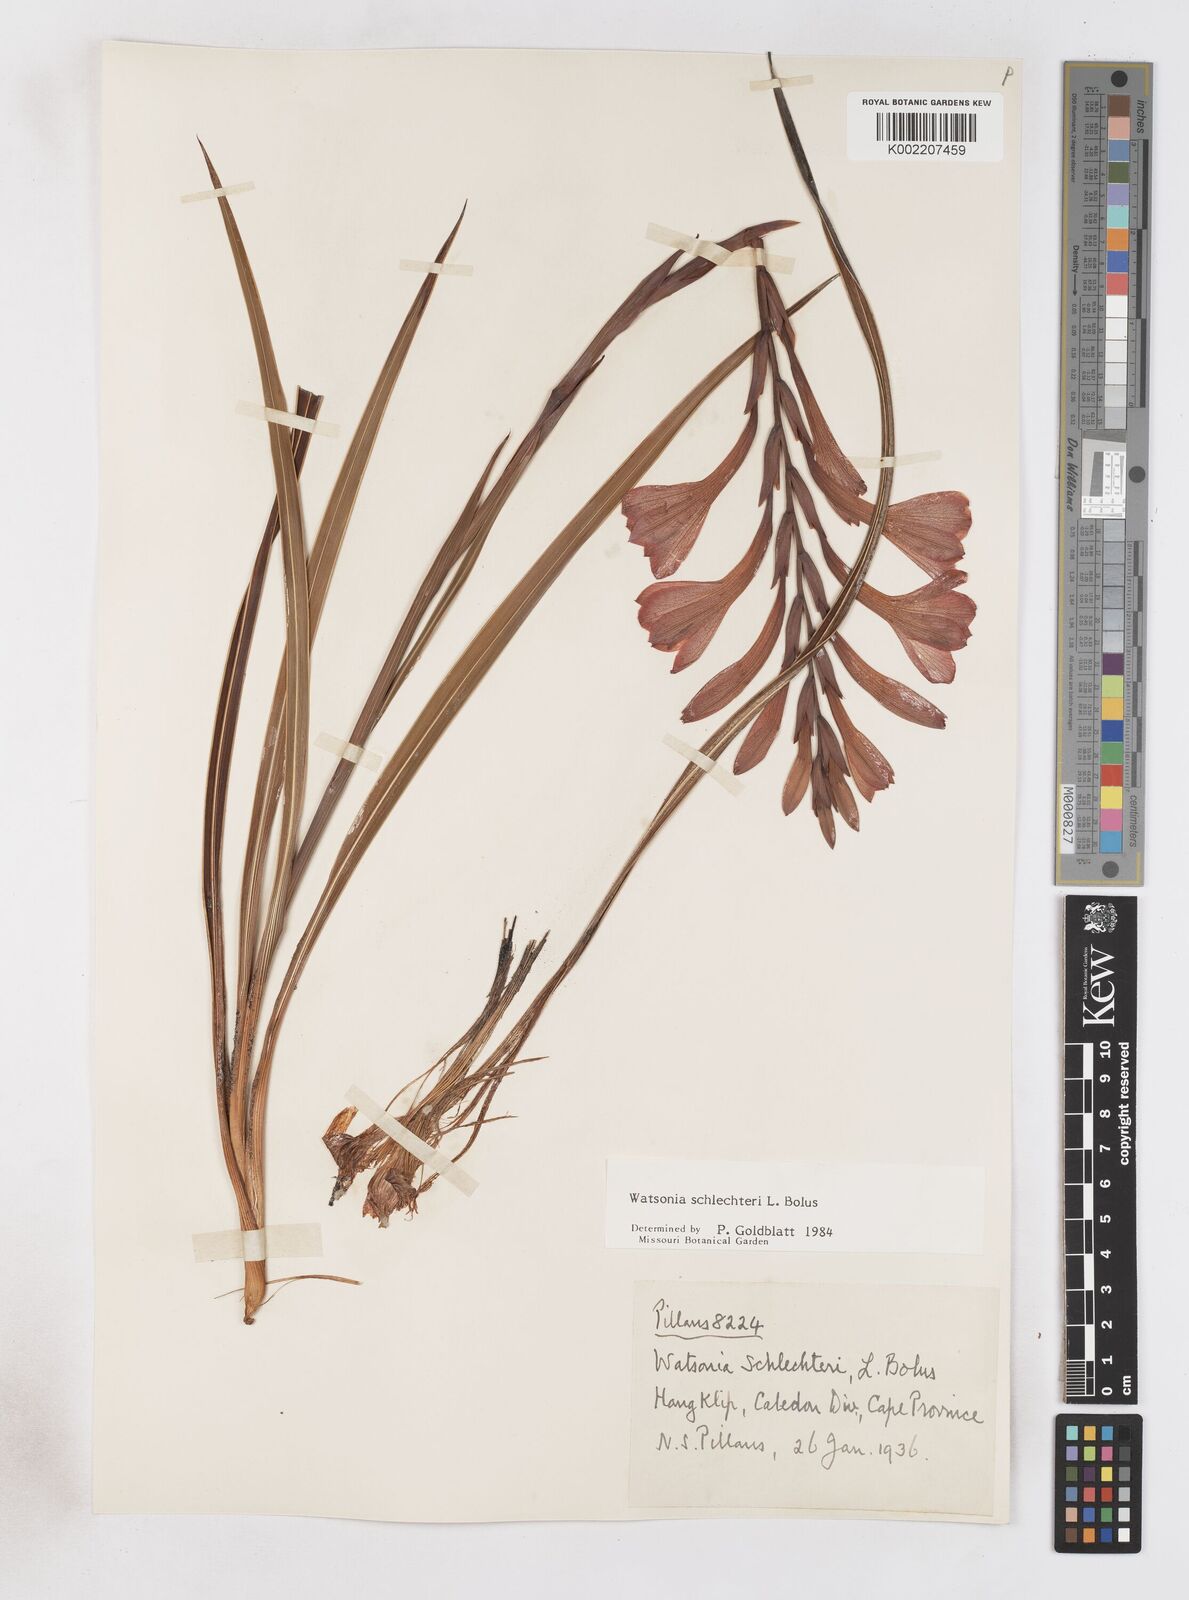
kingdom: Plantae
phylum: Tracheophyta
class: Liliopsida
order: Asparagales
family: Iridaceae
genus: Watsonia
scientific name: Watsonia schlechteri
